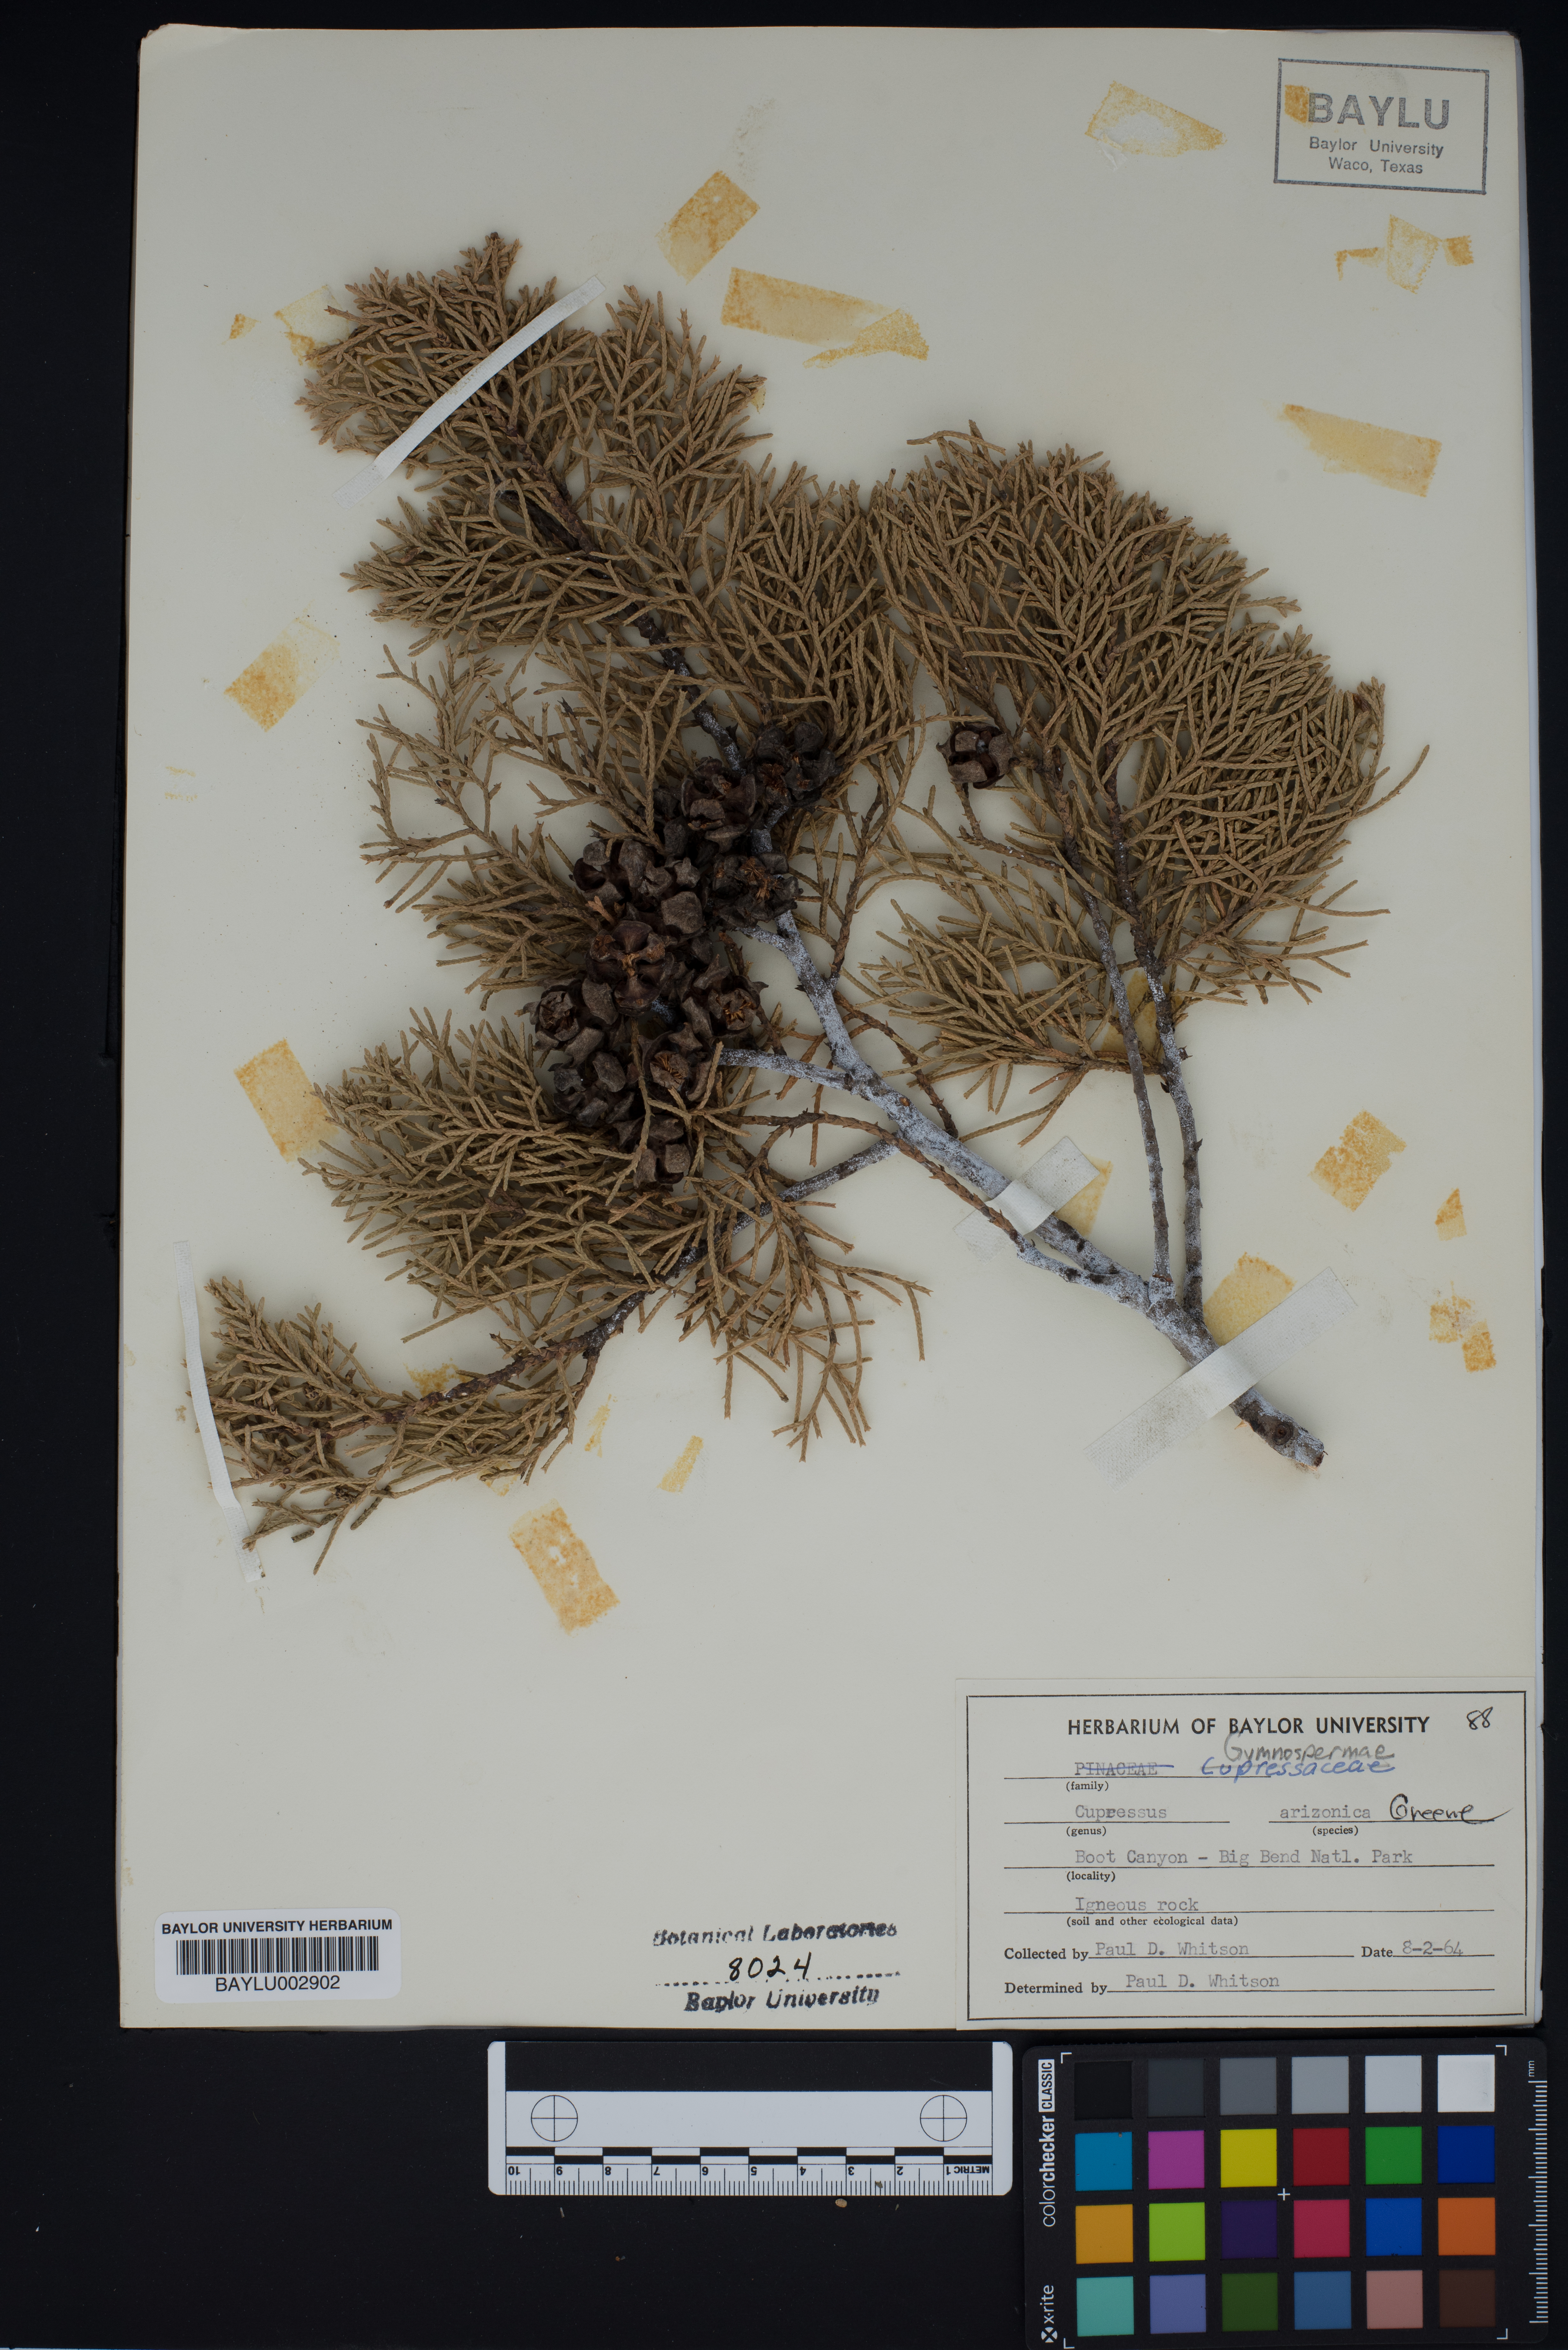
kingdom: Plantae
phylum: Tracheophyta
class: Pinopsida
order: Pinales
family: Cupressaceae
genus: Cupressus
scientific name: Cupressus arizonica
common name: Arizona cypress
